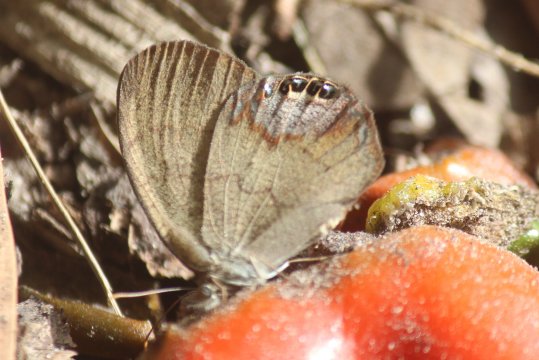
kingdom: Animalia
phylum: Arthropoda
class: Insecta
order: Lepidoptera
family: Nymphalidae
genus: Euptychia
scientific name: Euptychia cornelius
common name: Gemmed Satyr
